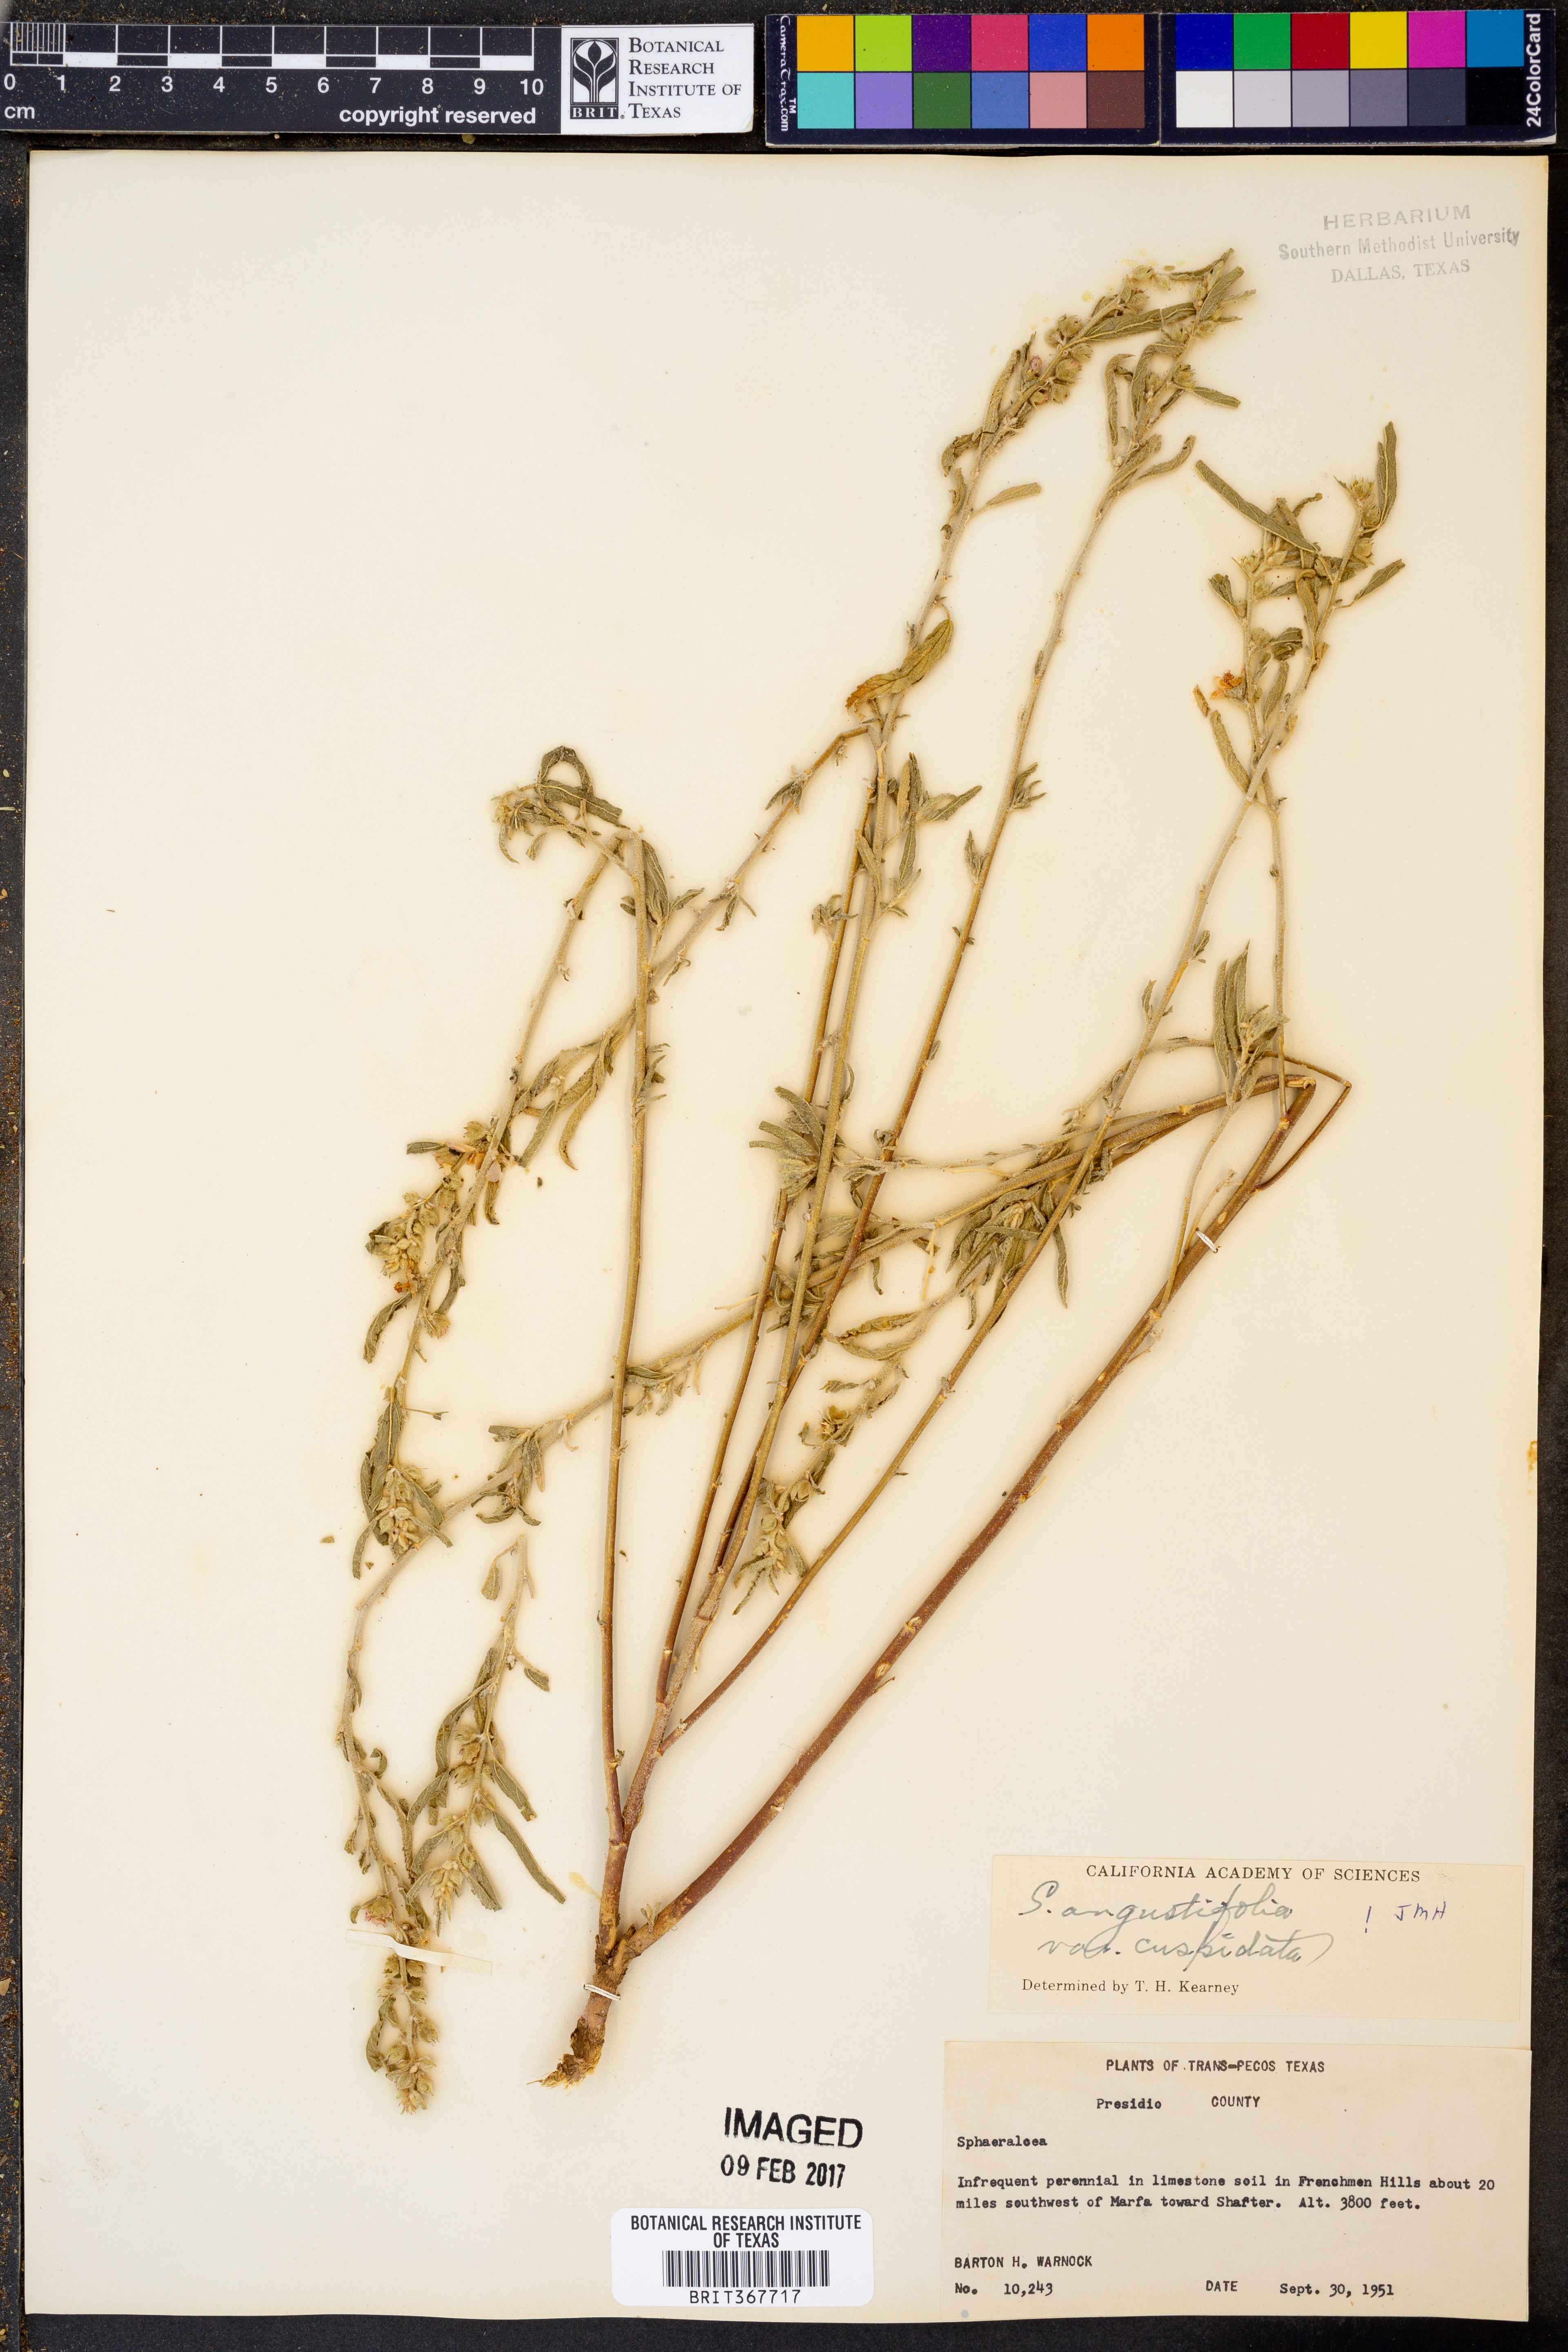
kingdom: Plantae
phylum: Tracheophyta
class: Magnoliopsida
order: Malvales
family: Malvaceae
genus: Sphaeralcea
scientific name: Sphaeralcea angustifolia
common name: Copper globe-mallow
